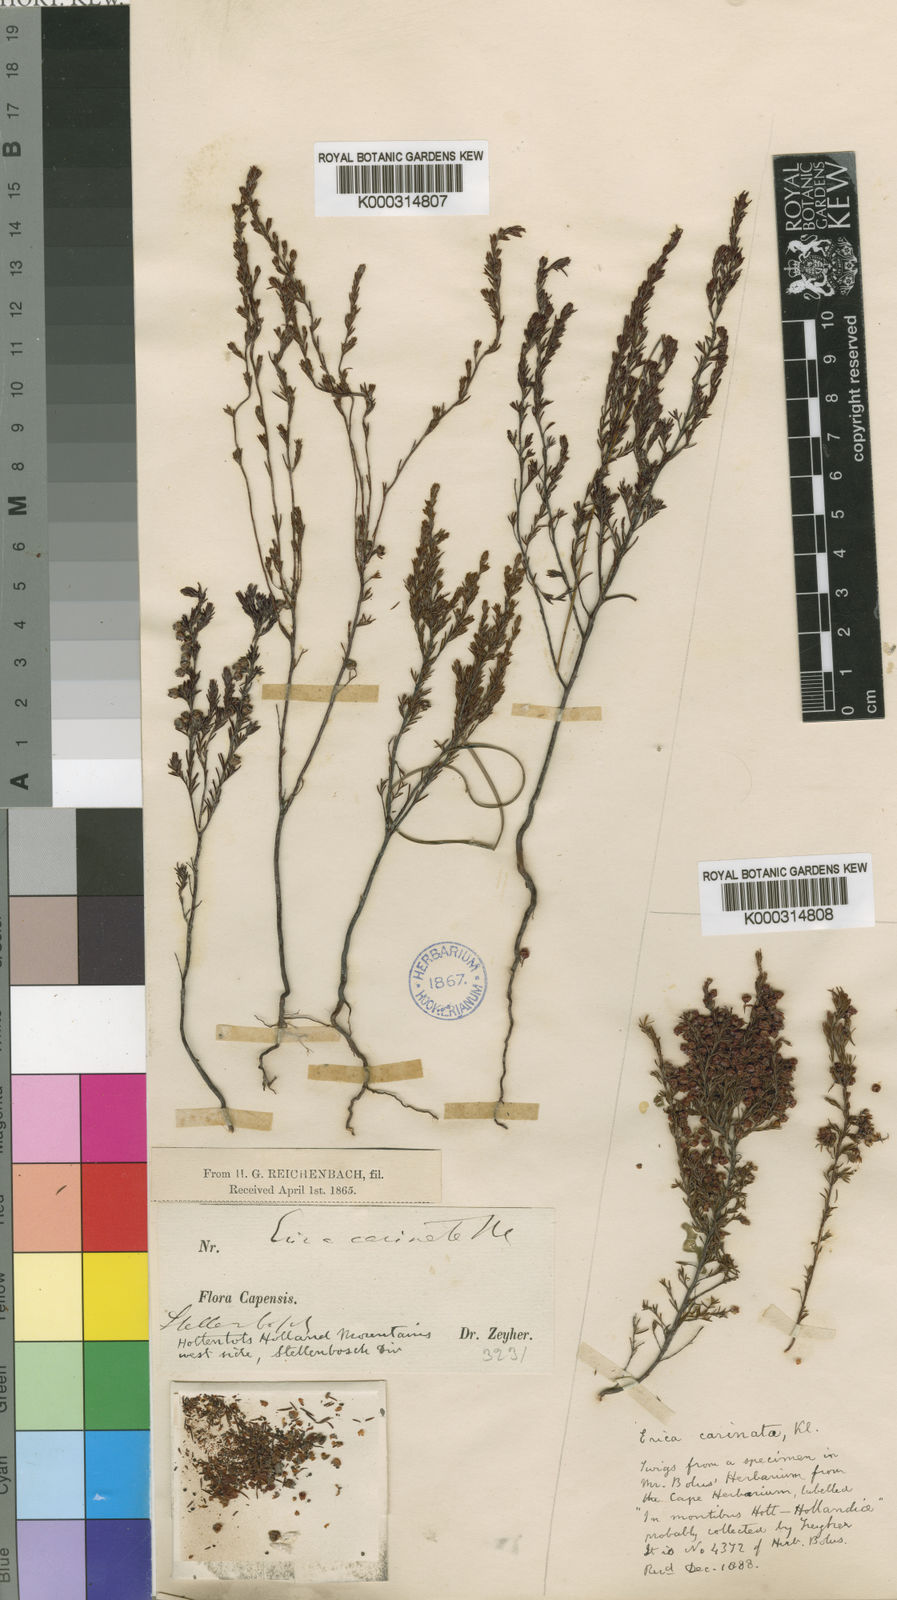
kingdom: Plantae
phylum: Tracheophyta
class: Magnoliopsida
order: Ericales
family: Ericaceae
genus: Erica
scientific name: Erica
